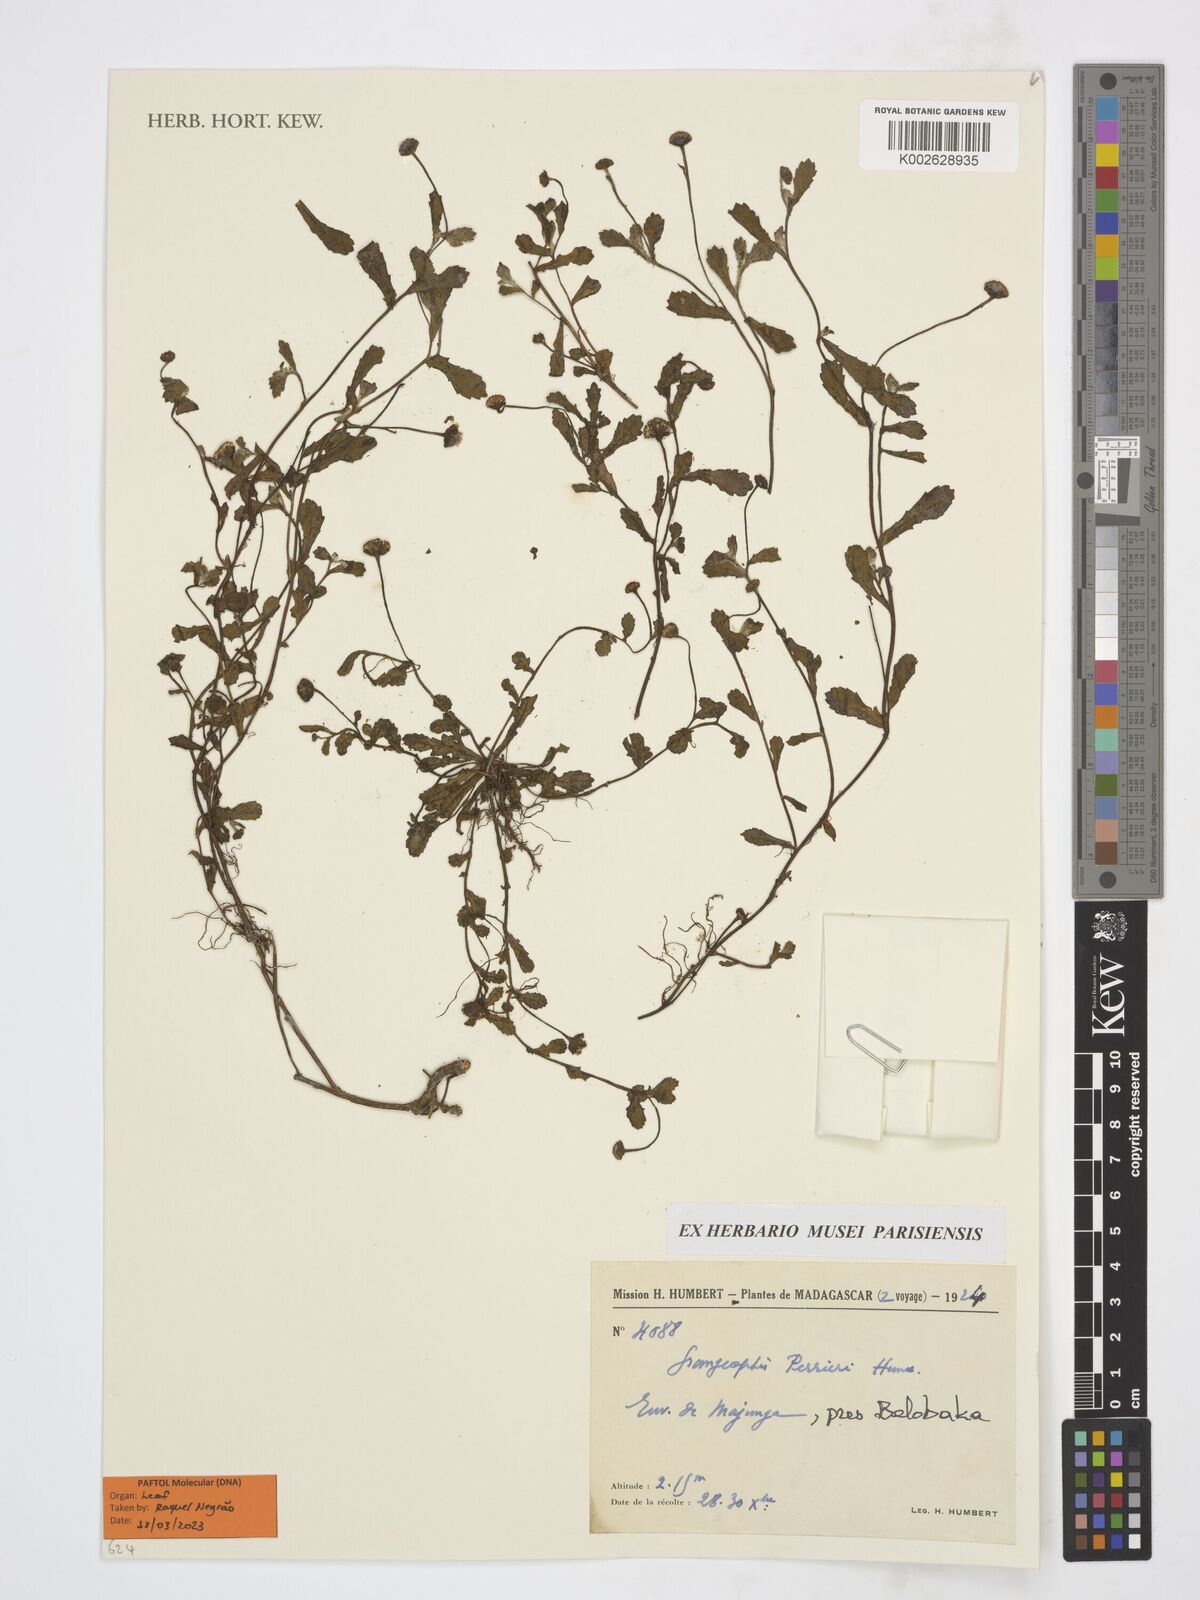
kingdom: Plantae
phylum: Tracheophyta
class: Magnoliopsida
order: Asterales
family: Asteraceae
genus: Grangeopsis
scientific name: Grangeopsis perrieri
